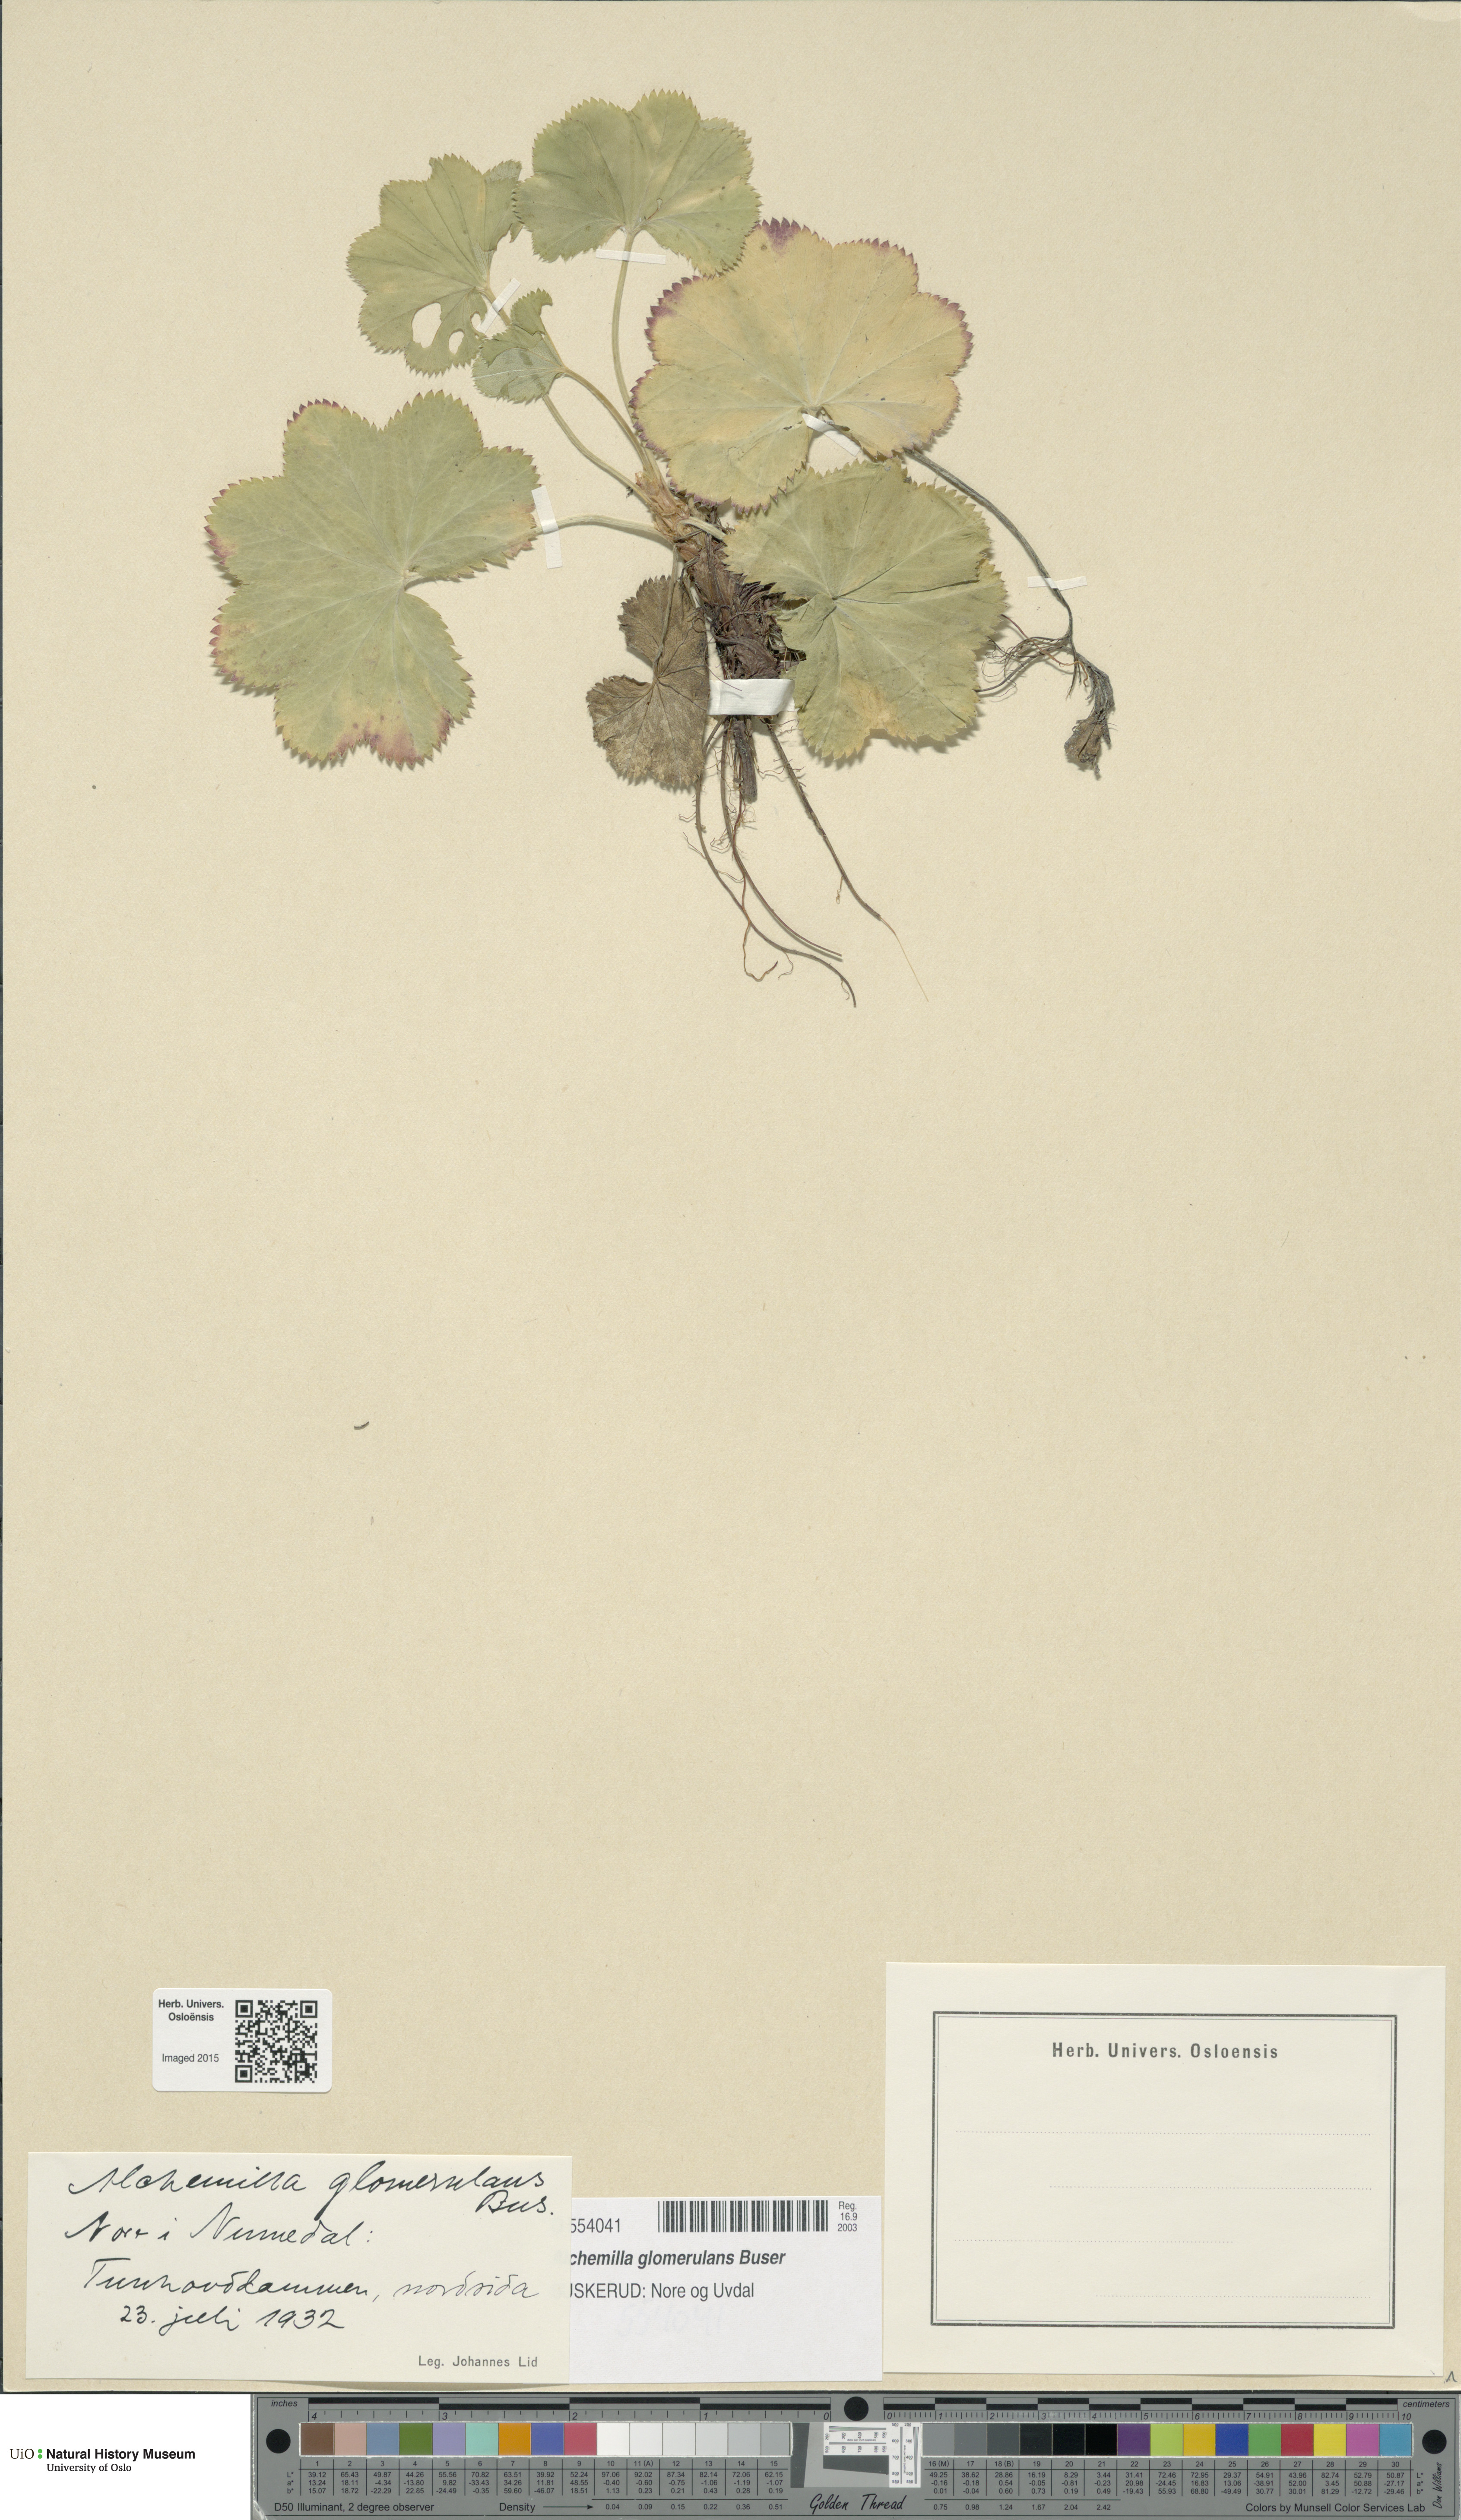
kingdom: Plantae
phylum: Tracheophyta
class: Magnoliopsida
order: Rosales
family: Rosaceae
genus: Alchemilla
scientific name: Alchemilla glomerulans
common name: Clustered lady's mantle
